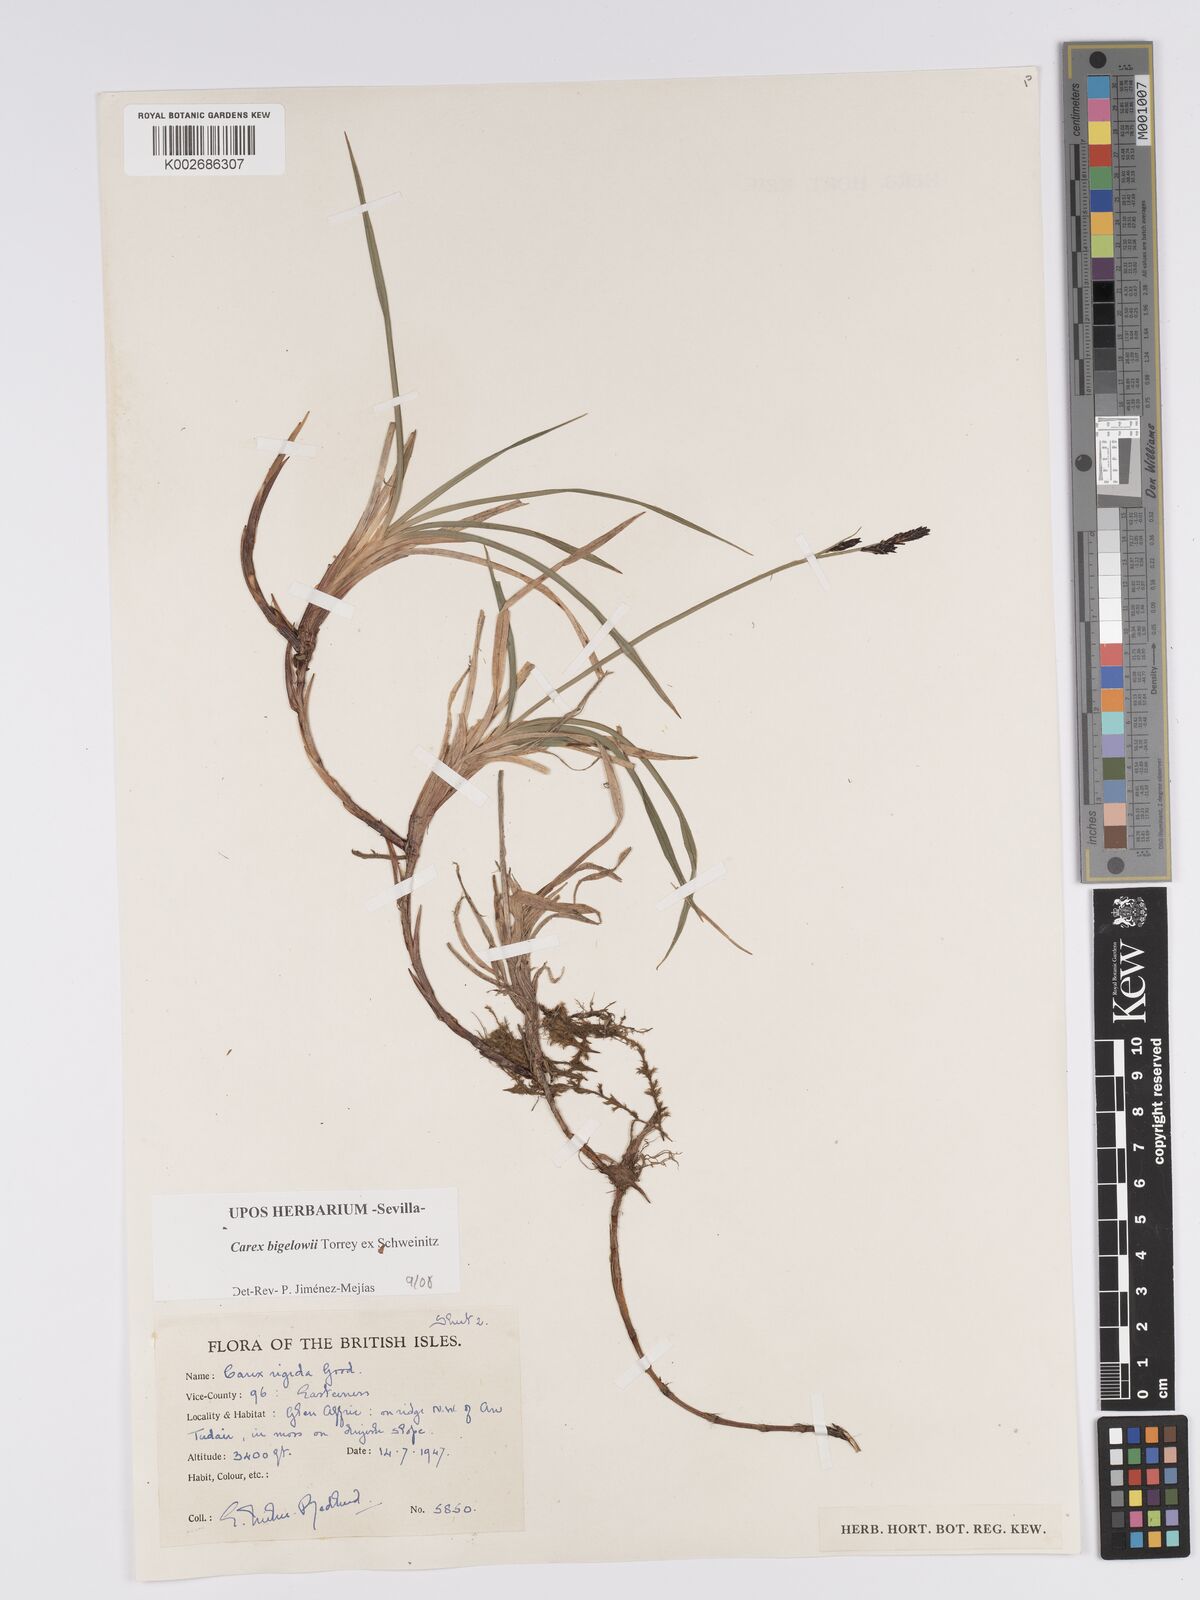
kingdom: Plantae
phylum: Tracheophyta
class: Liliopsida
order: Poales
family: Cyperaceae
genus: Carex
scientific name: Carex bigelowii
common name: Stiff sedge
